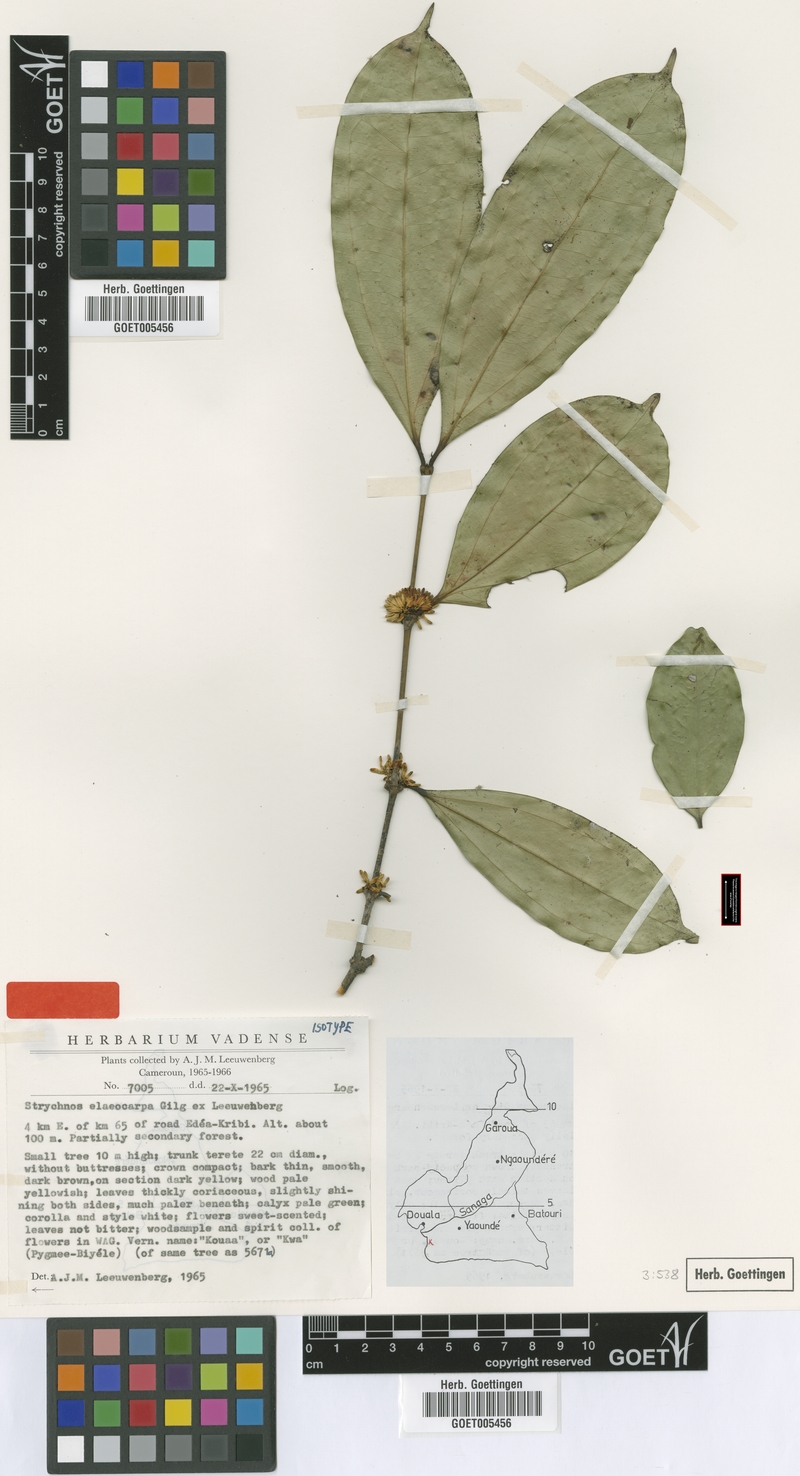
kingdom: Plantae
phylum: Tracheophyta
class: Magnoliopsida
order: Gentianales
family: Loganiaceae
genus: Strychnos
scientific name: Strychnos elaeocarpa
